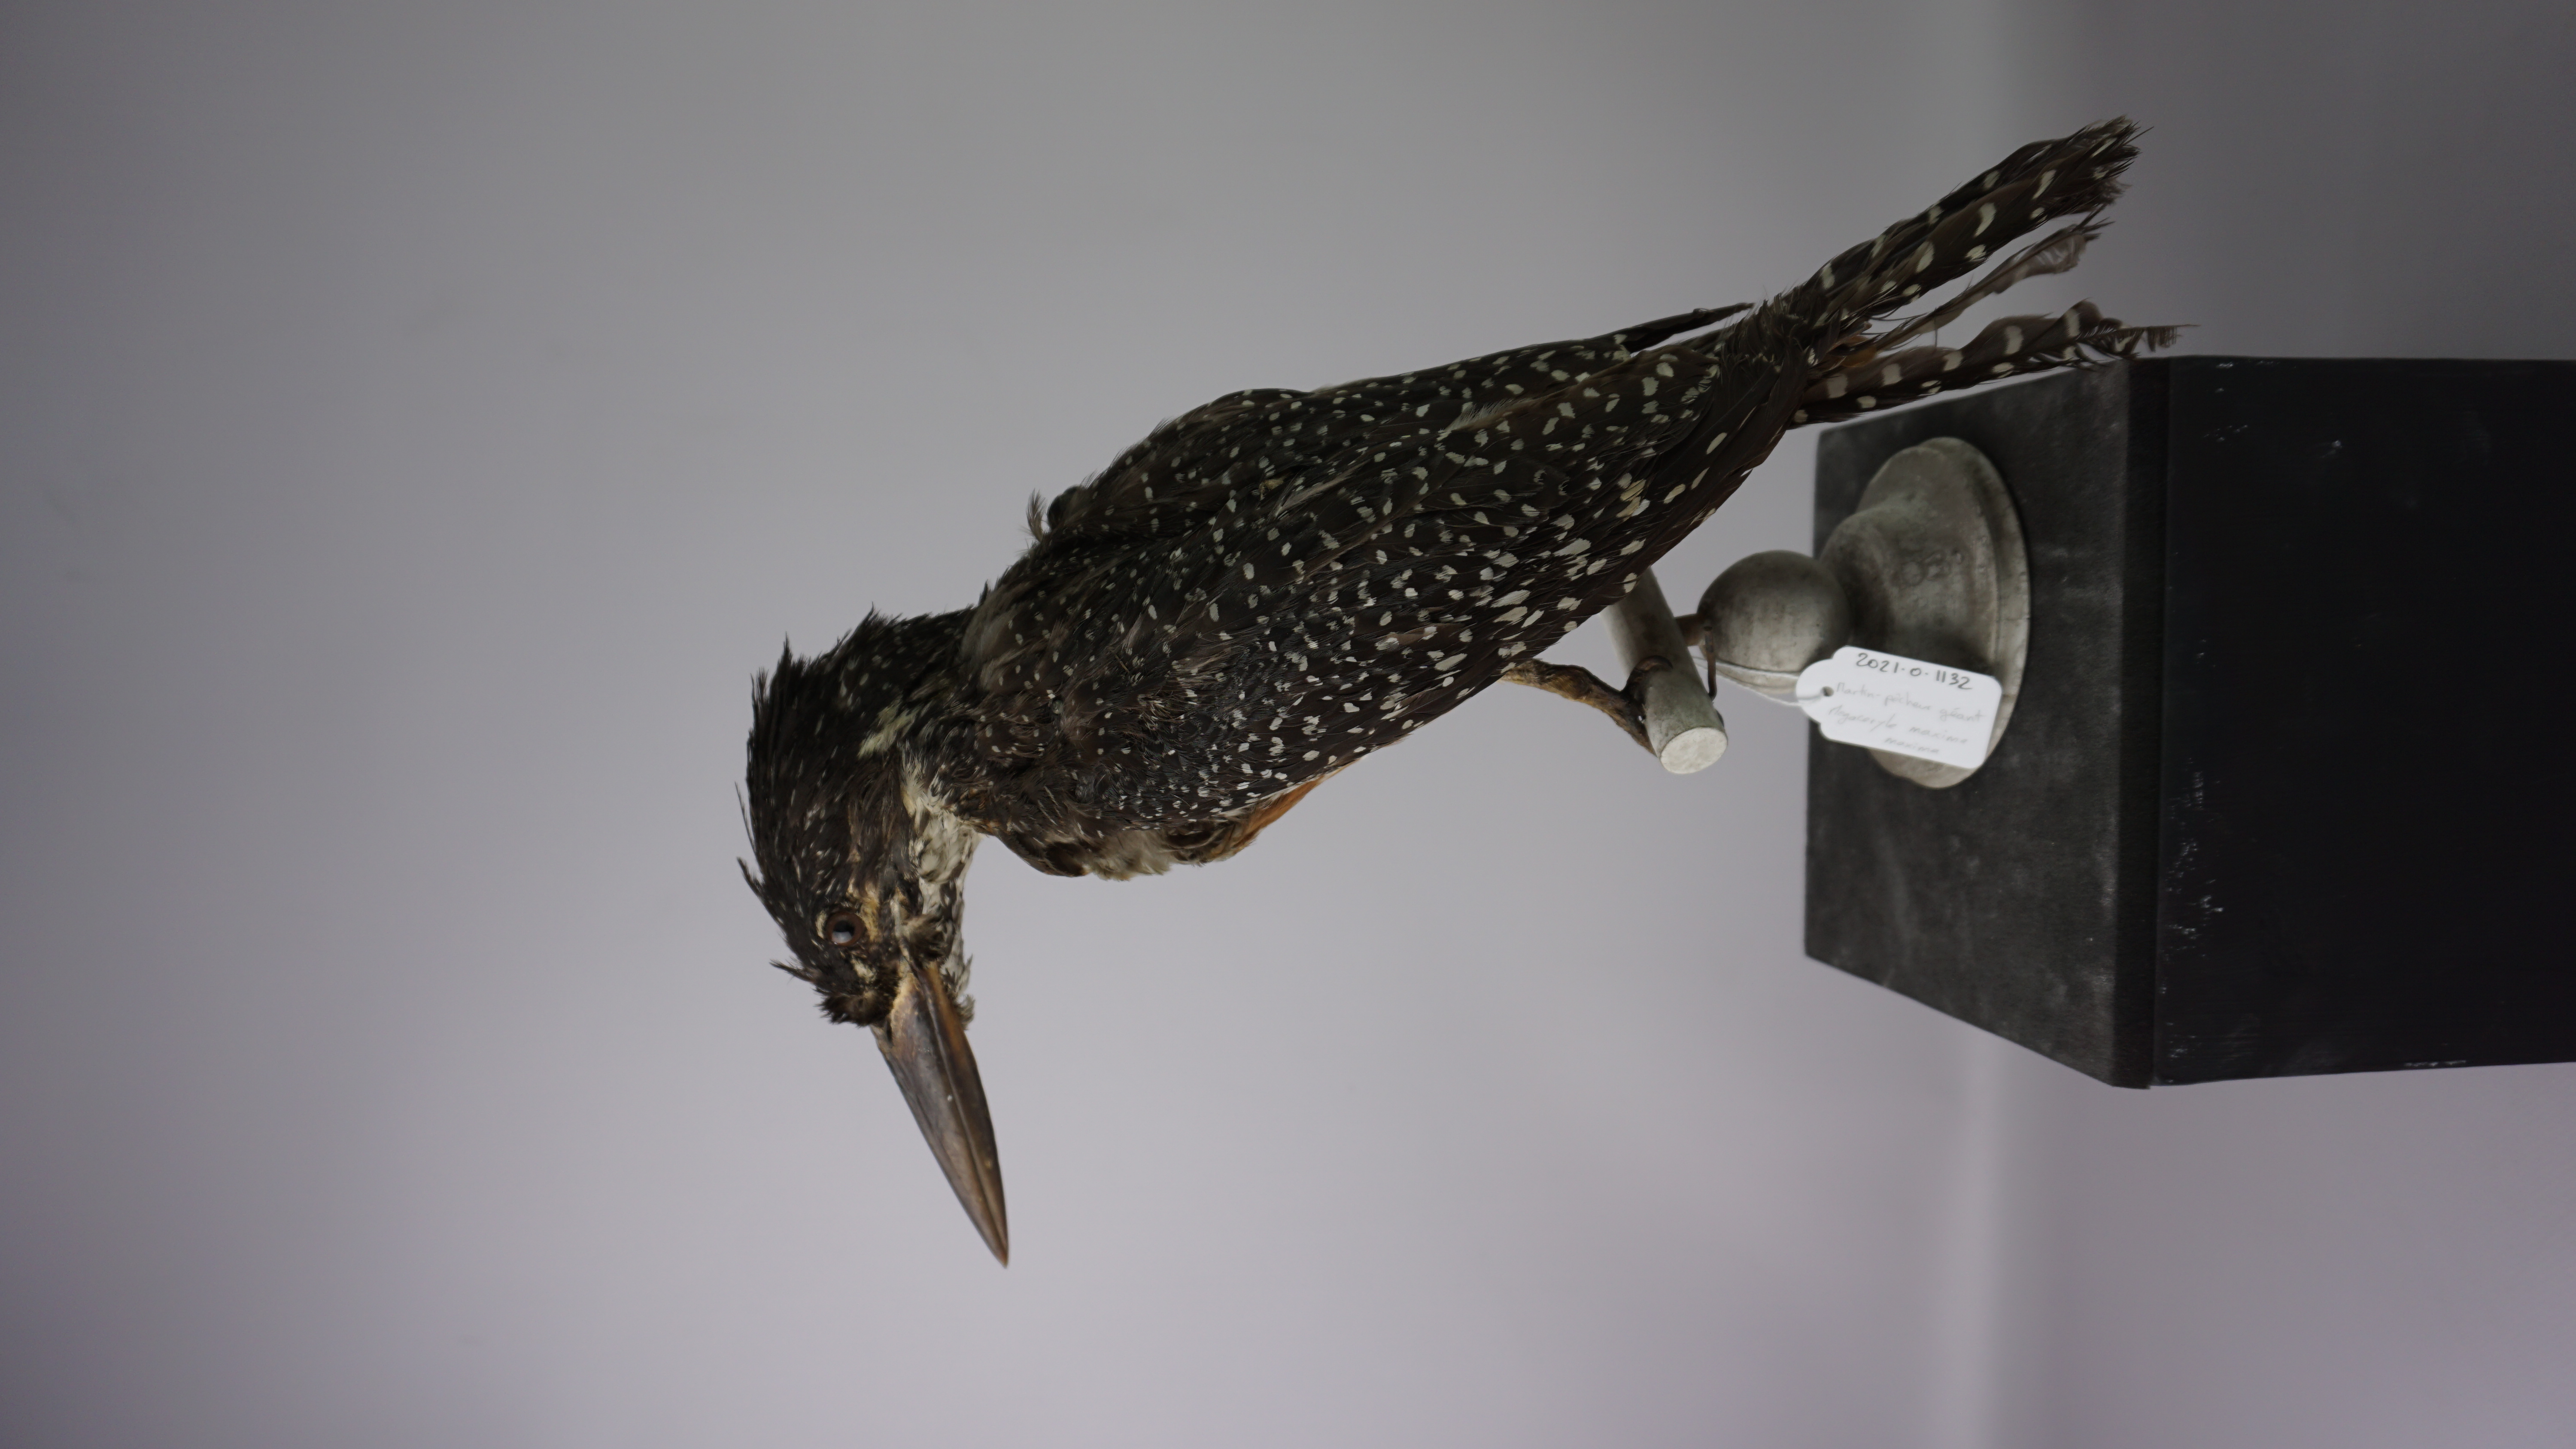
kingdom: Animalia
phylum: Chordata
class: Aves
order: Coraciiformes
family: Alcedinidae
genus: Megaceryle
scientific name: Megaceryle maxima
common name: Giant kingfisher
